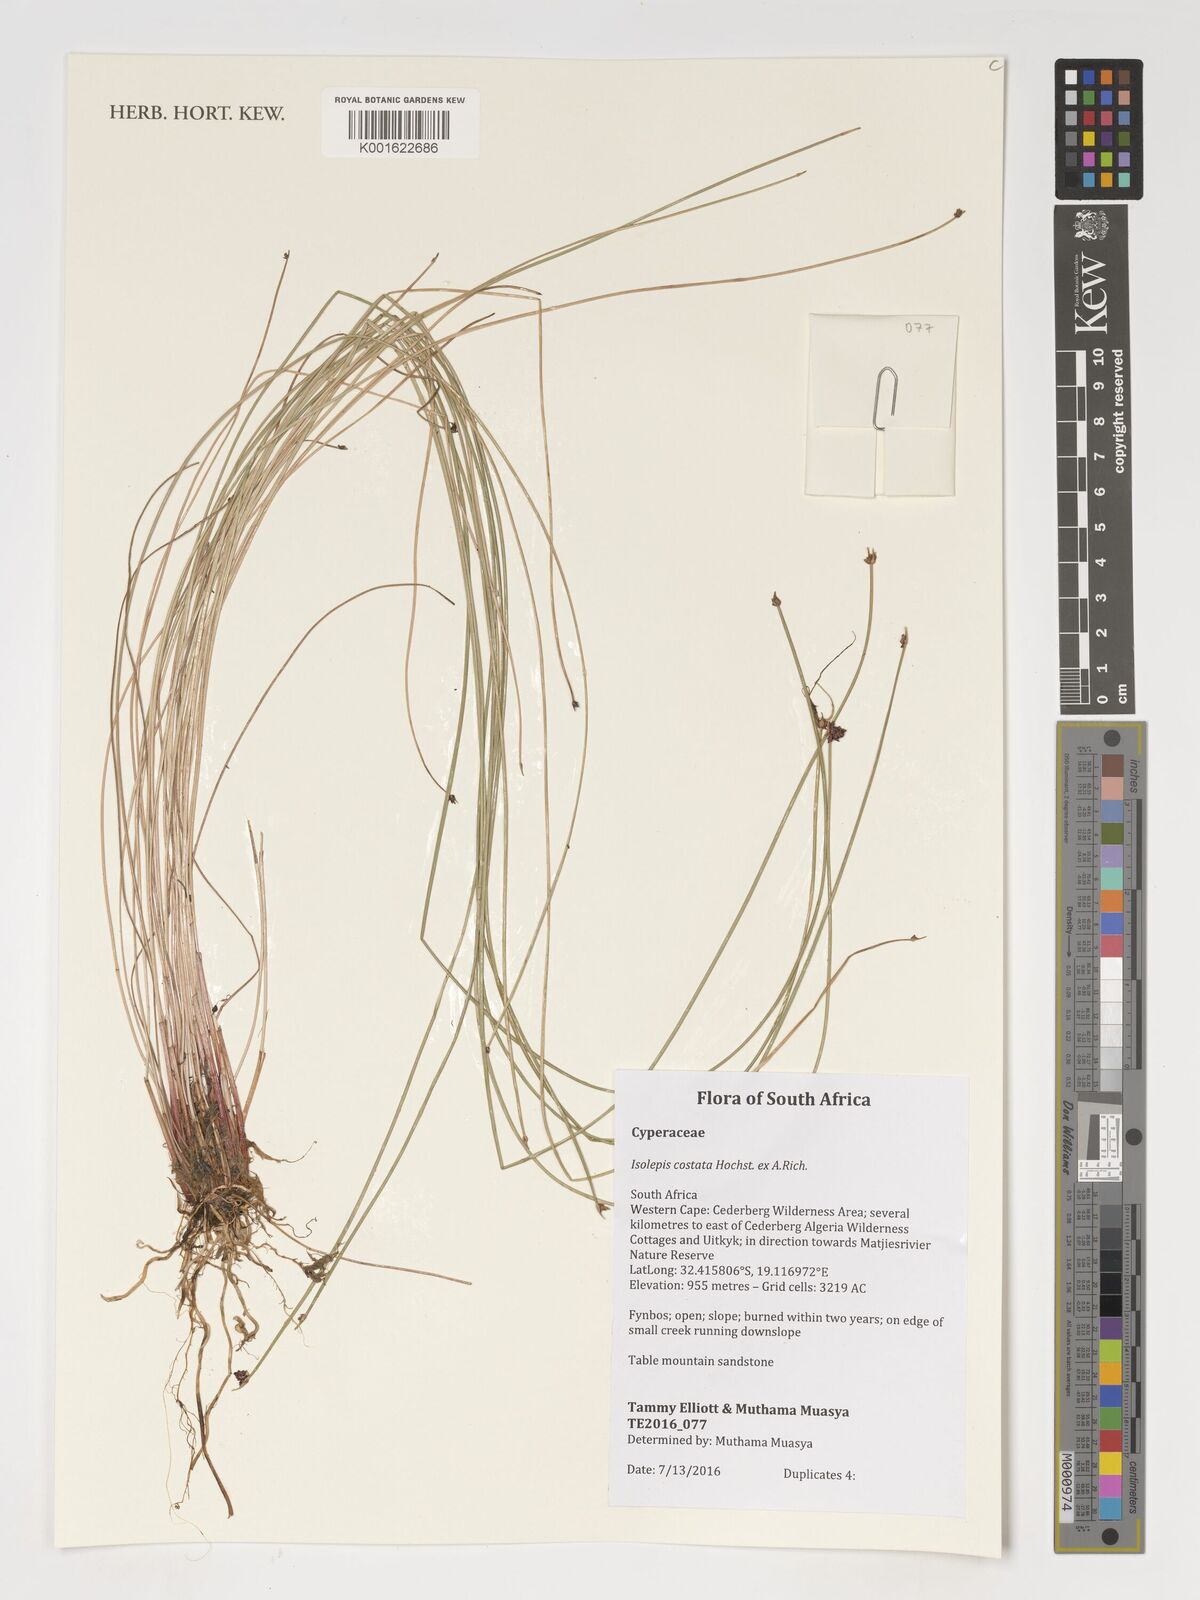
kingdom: Plantae
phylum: Tracheophyta
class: Liliopsida
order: Poales
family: Cyperaceae
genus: Isolepis
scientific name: Isolepis costata
